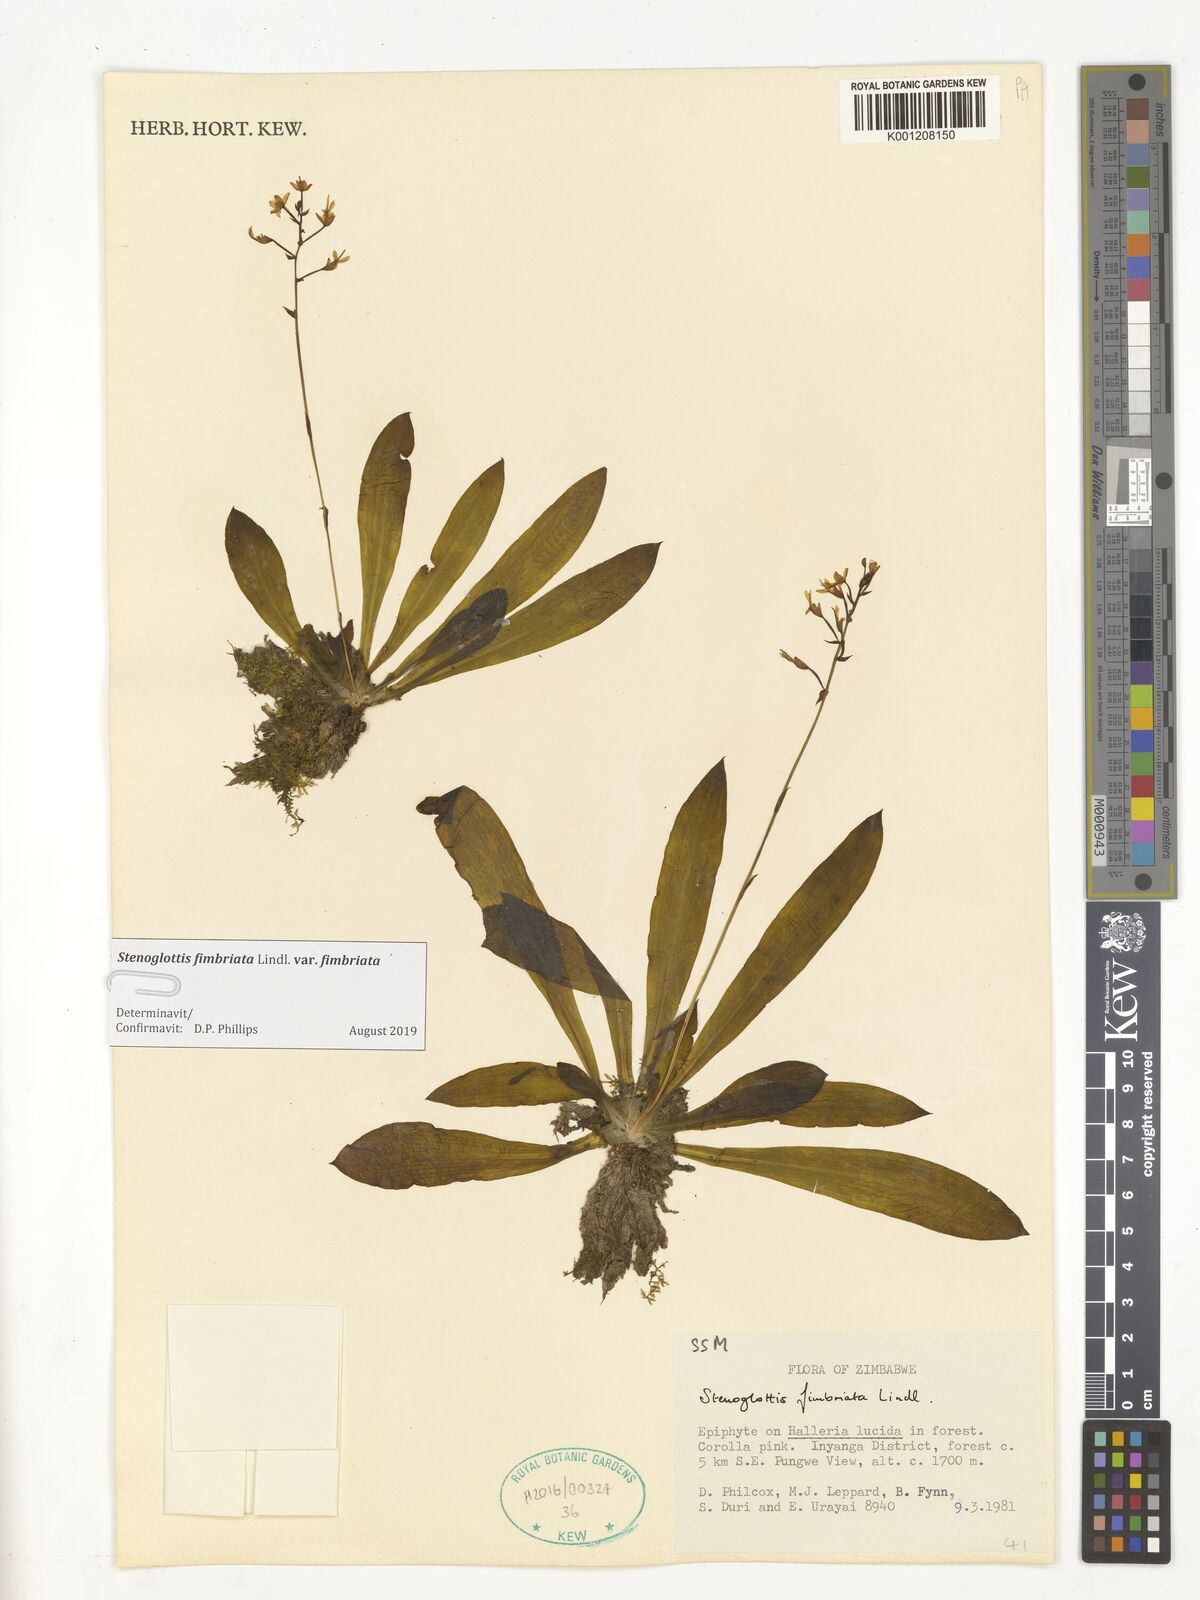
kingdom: Plantae
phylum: Tracheophyta
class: Liliopsida
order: Asparagales
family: Orchidaceae
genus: Stenoglottis
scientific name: Stenoglottis fimbriata
